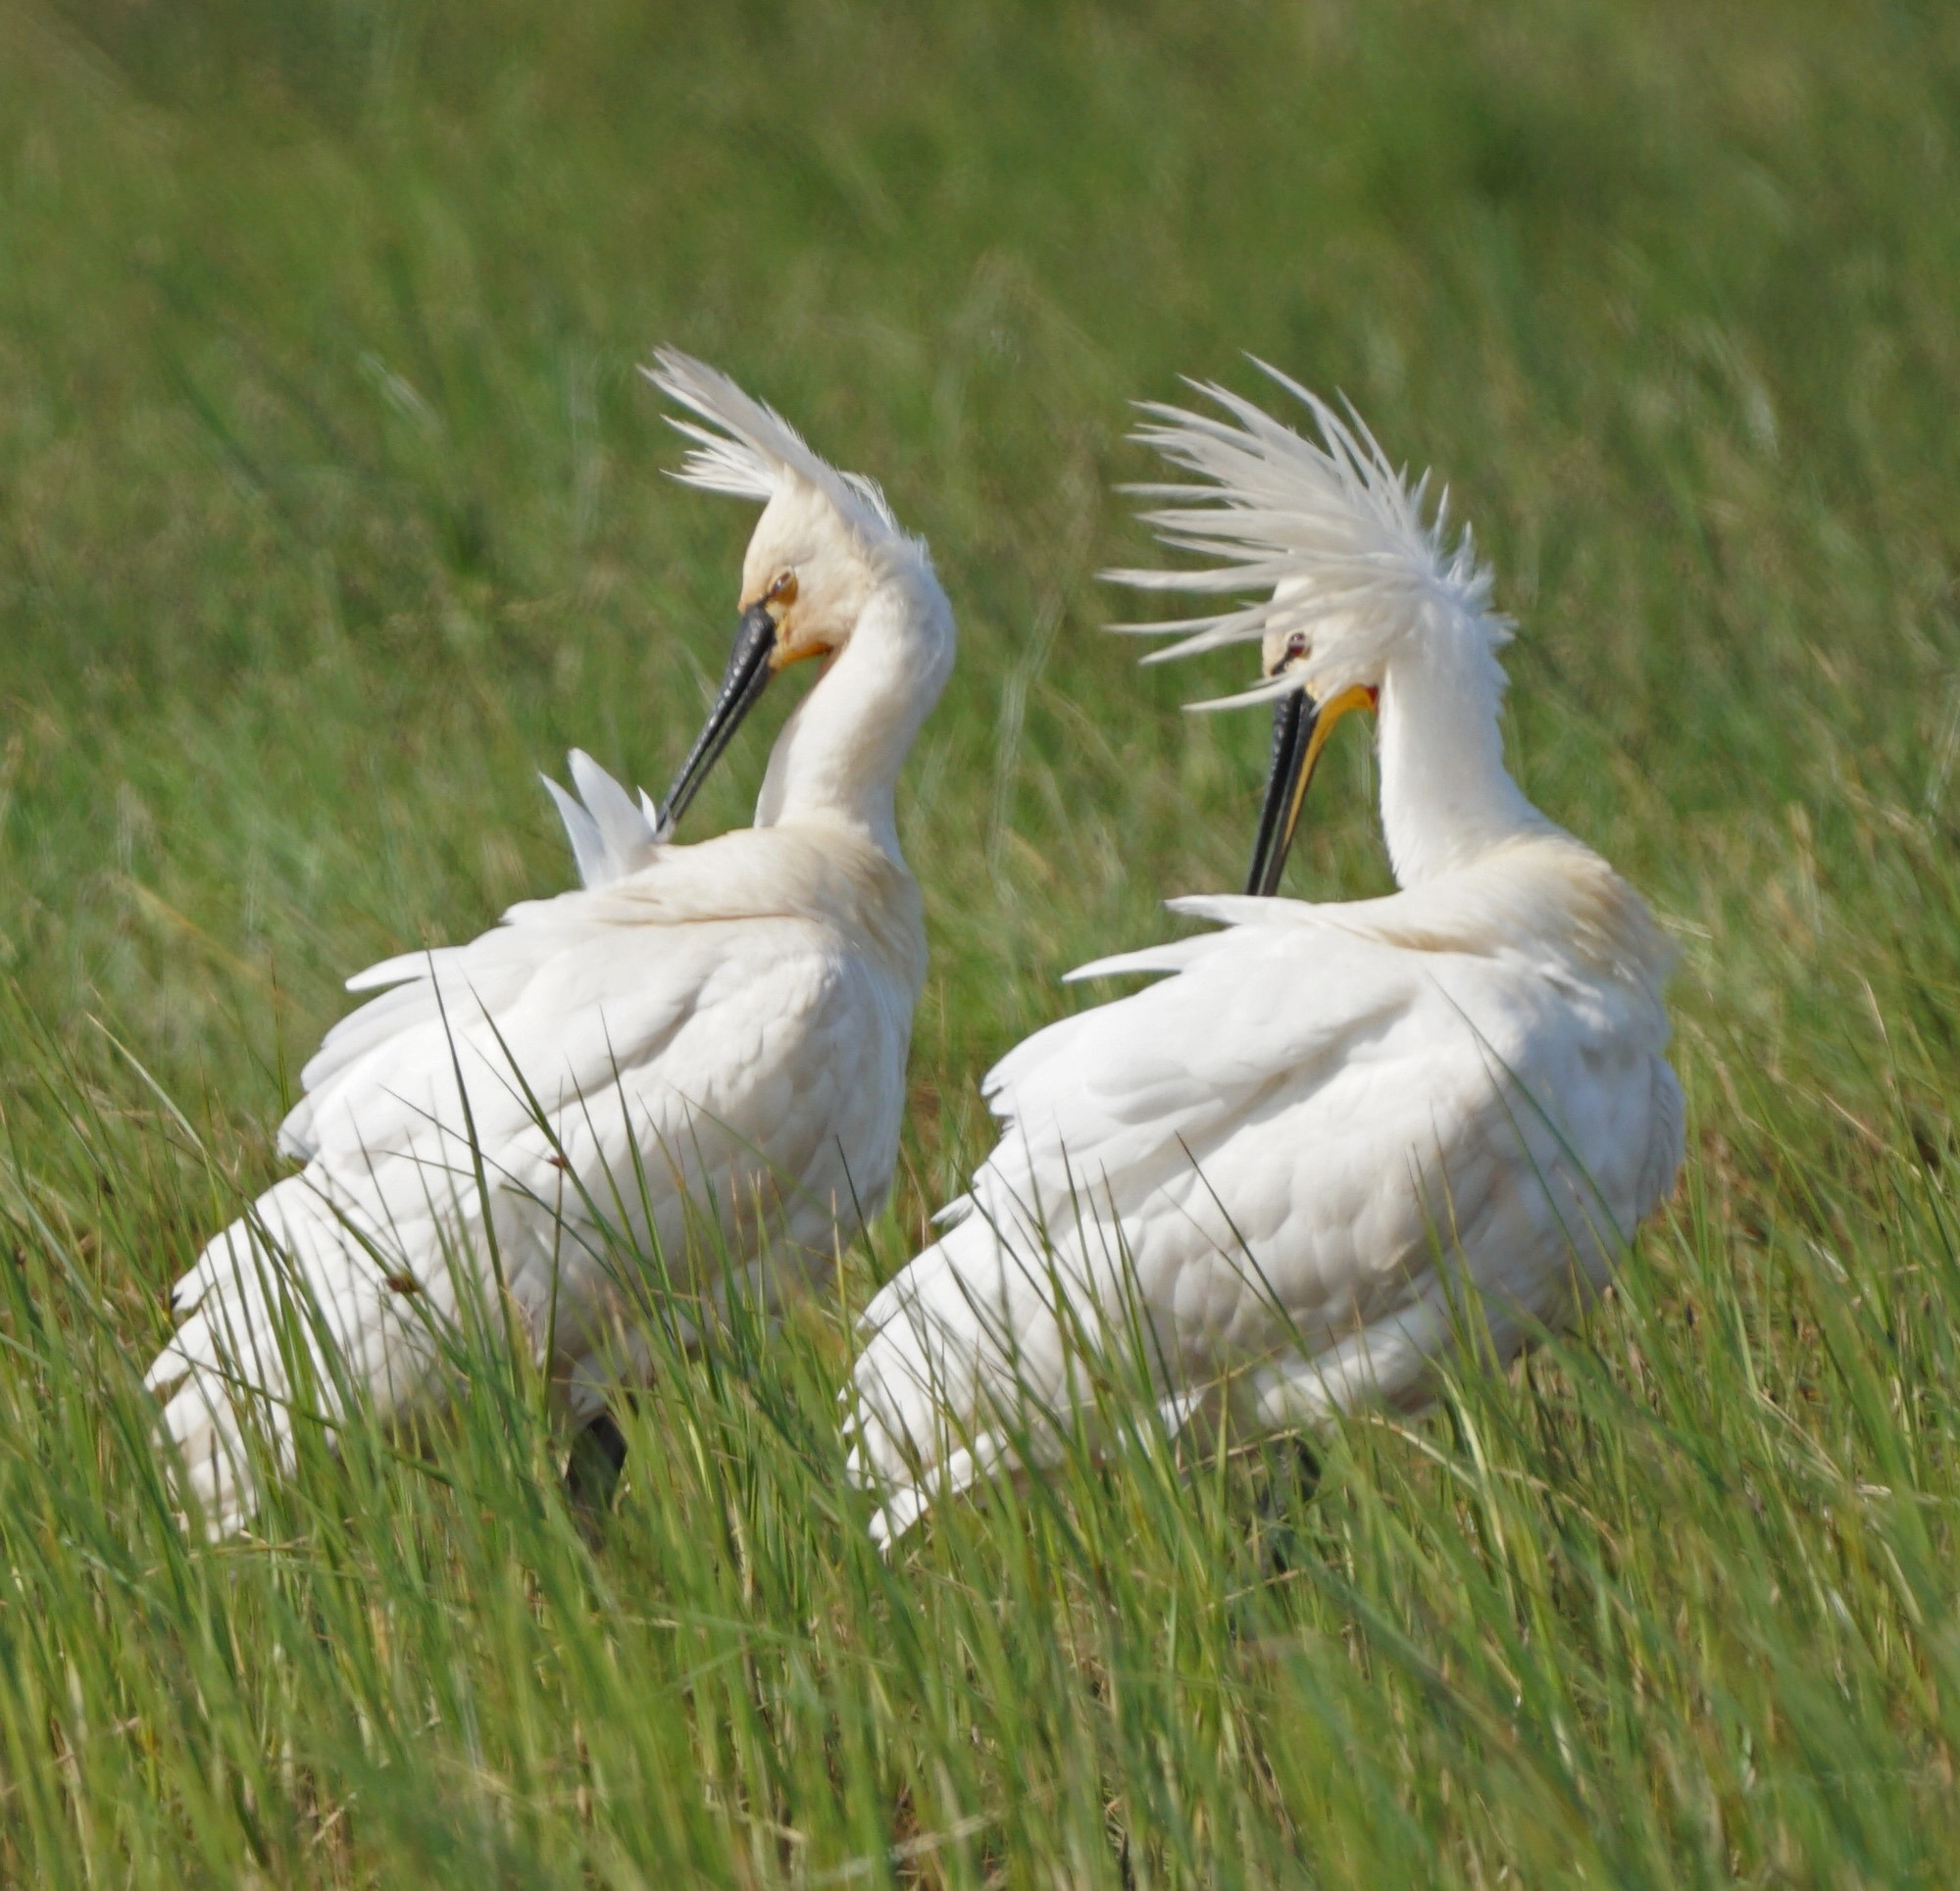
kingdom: Animalia
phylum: Chordata
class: Aves
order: Pelecaniformes
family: Threskiornithidae
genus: Platalea
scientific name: Platalea leucorodia
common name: Skestork
